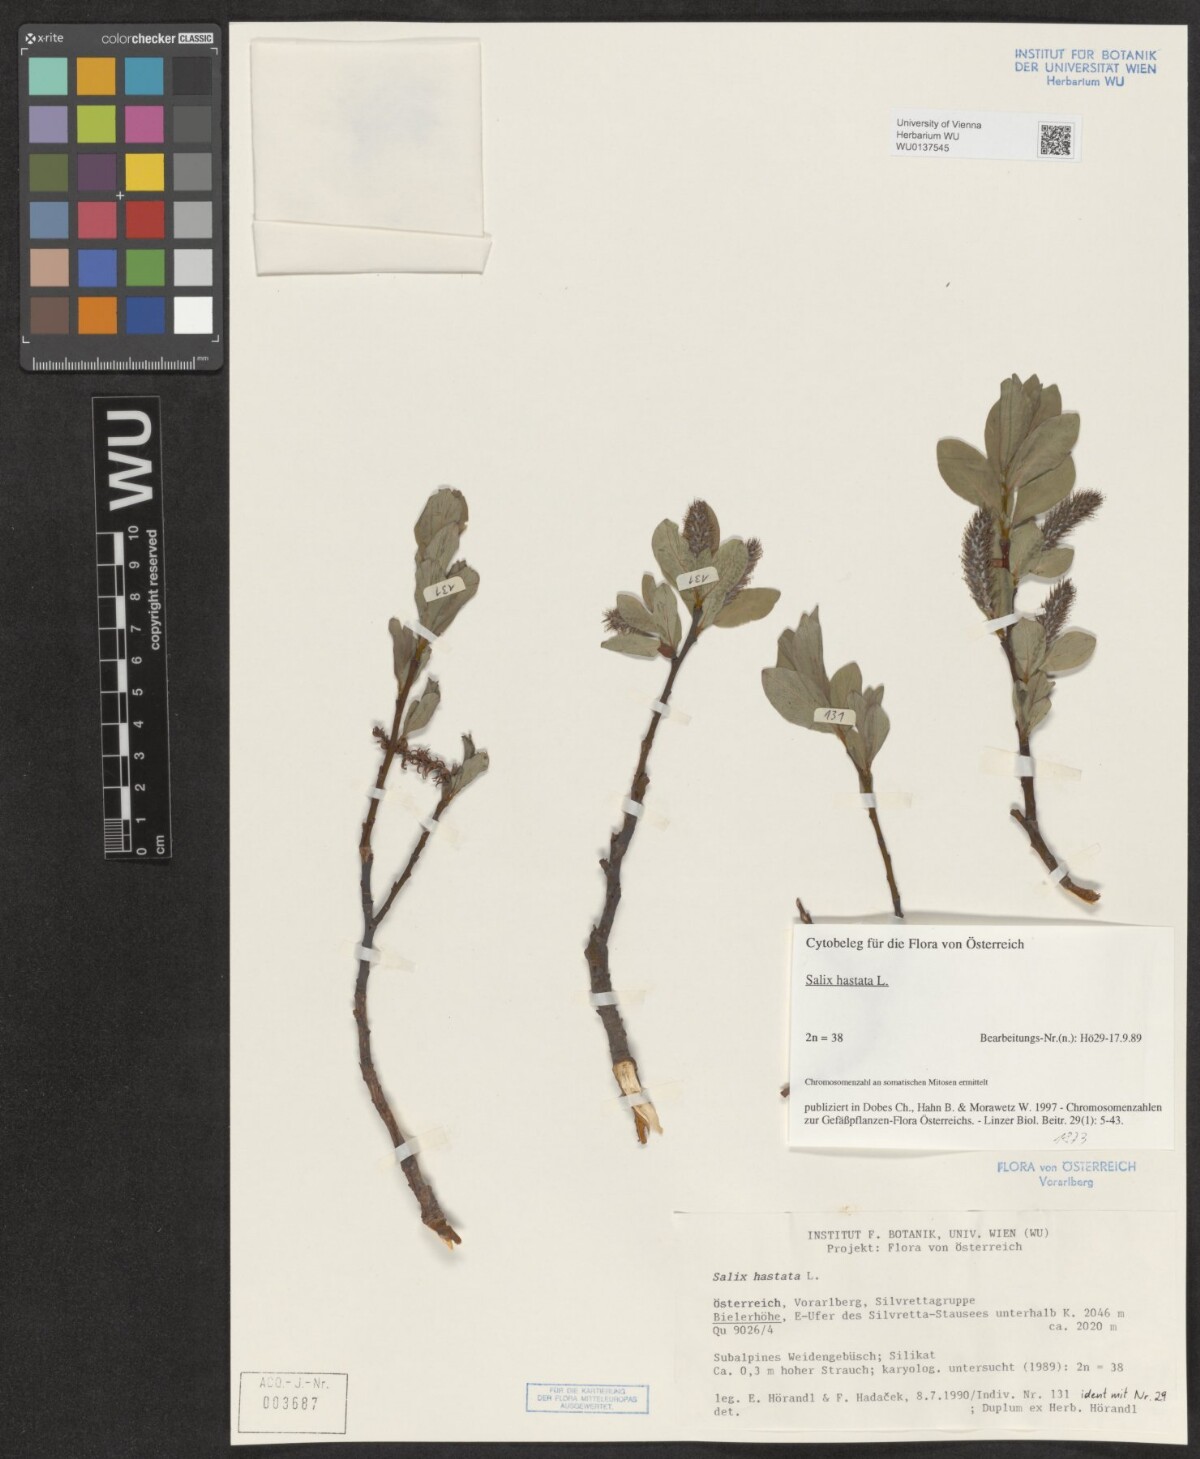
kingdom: Plantae
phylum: Tracheophyta
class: Magnoliopsida
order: Malpighiales
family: Salicaceae
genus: Salix
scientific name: Salix hastata
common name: Halberd willow
